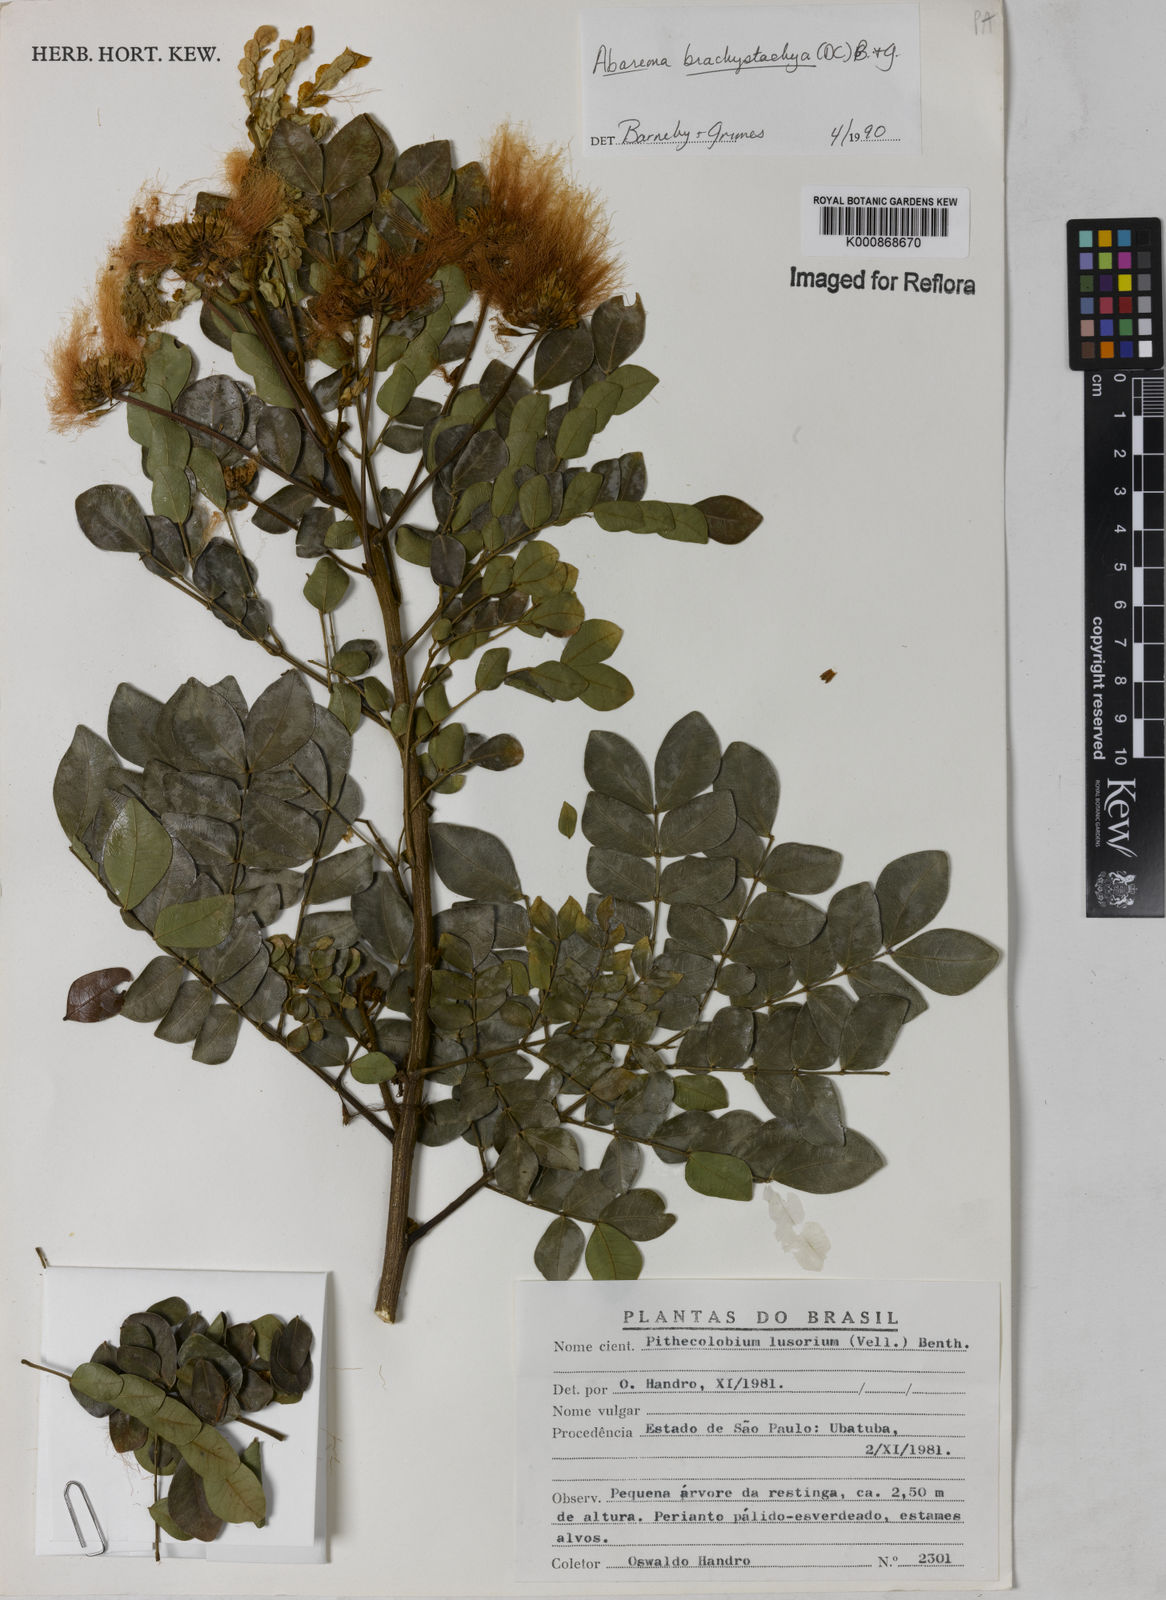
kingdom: Plantae
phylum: Tracheophyta
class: Magnoliopsida
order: Fabales
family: Fabaceae
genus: Abarema
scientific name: Abarema
